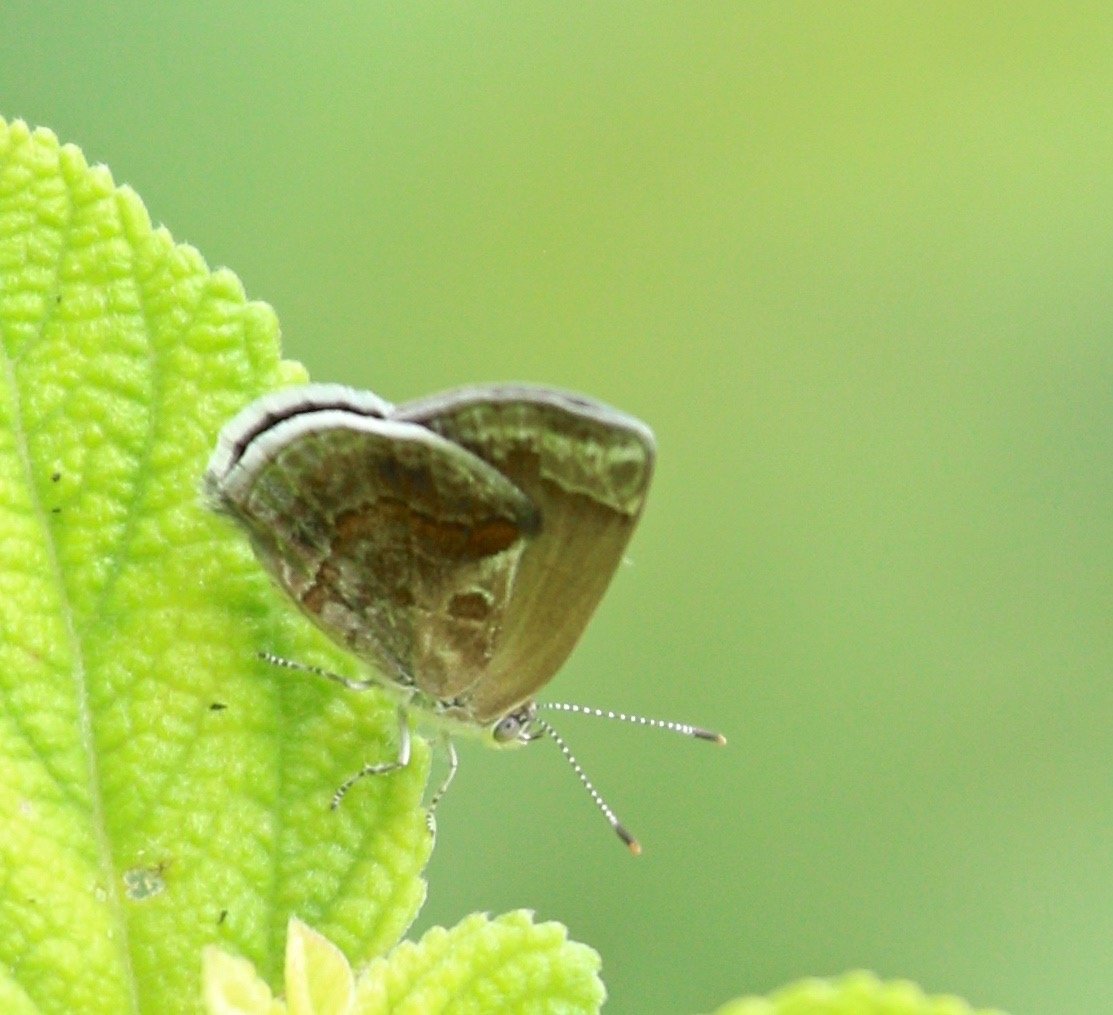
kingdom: Animalia
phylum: Arthropoda
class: Insecta
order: Lepidoptera
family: Lycaenidae
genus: Strymon
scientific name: Strymon bazochii
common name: Lantana Scrub-Hairstreak
